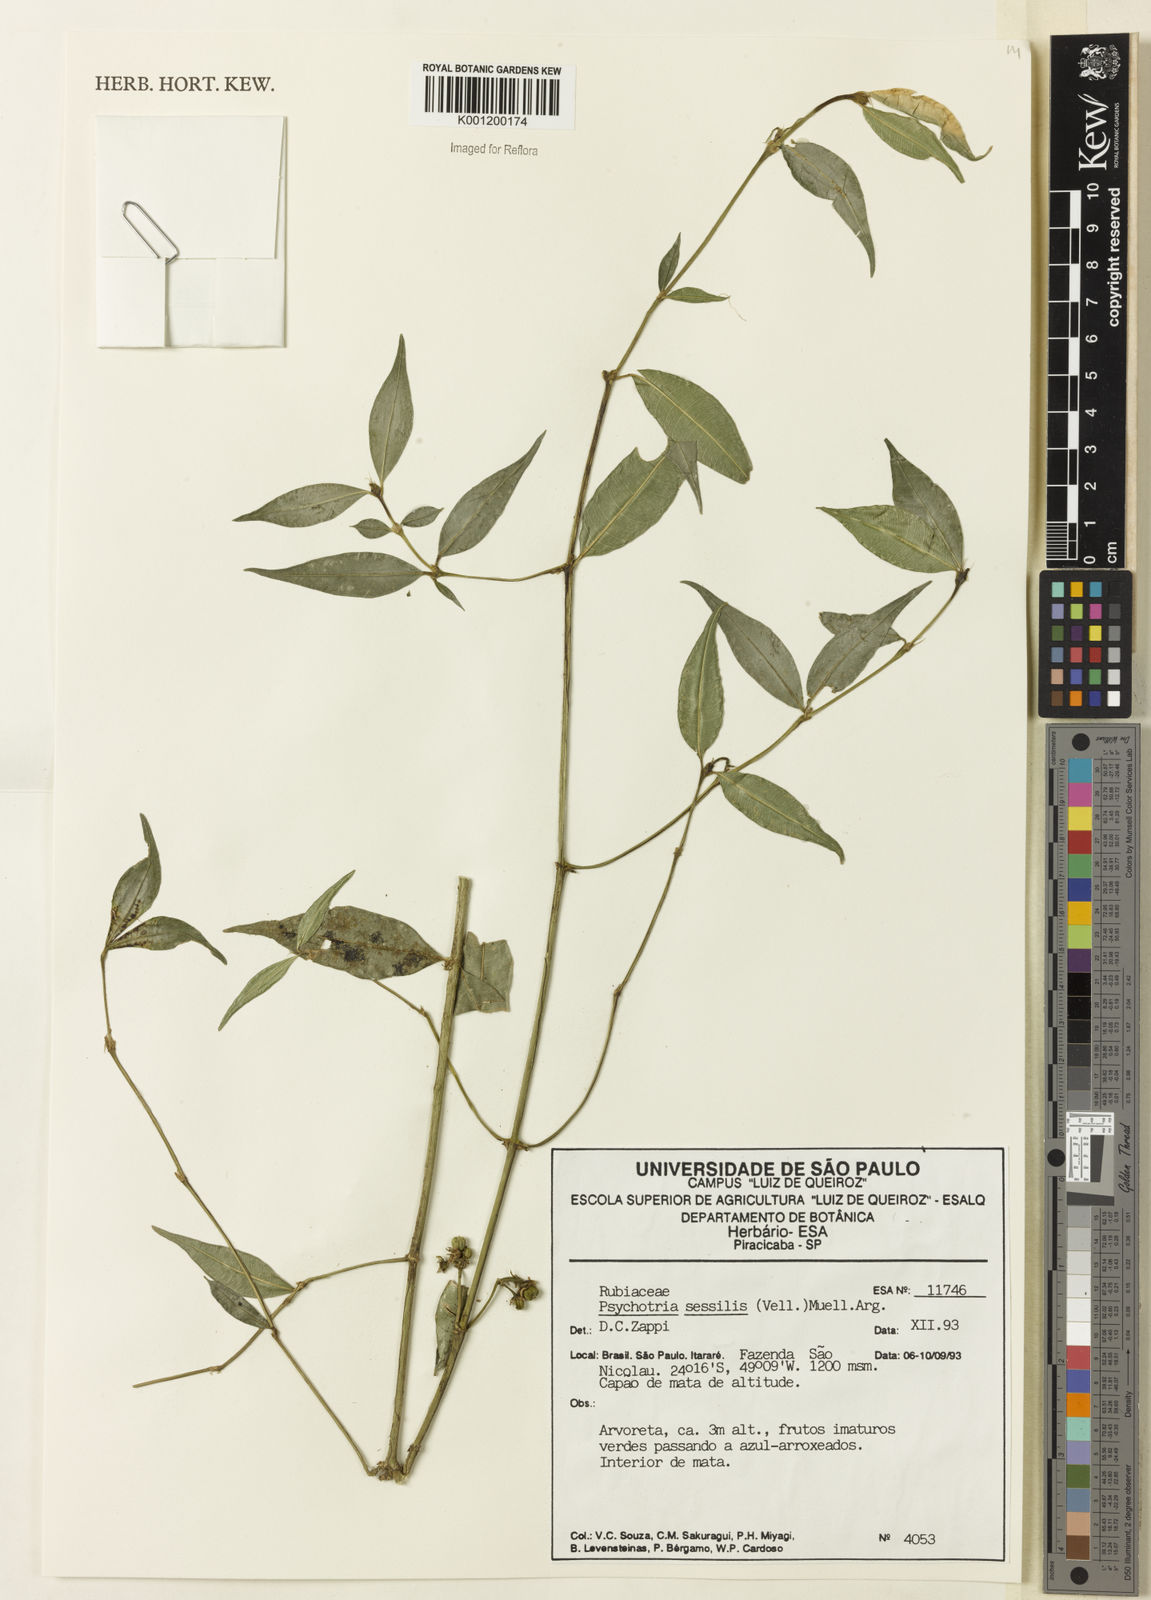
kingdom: Plantae
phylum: Tracheophyta
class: Magnoliopsida
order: Gentianales
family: Rubiaceae
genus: Rudgea
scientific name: Rudgea sessilis
